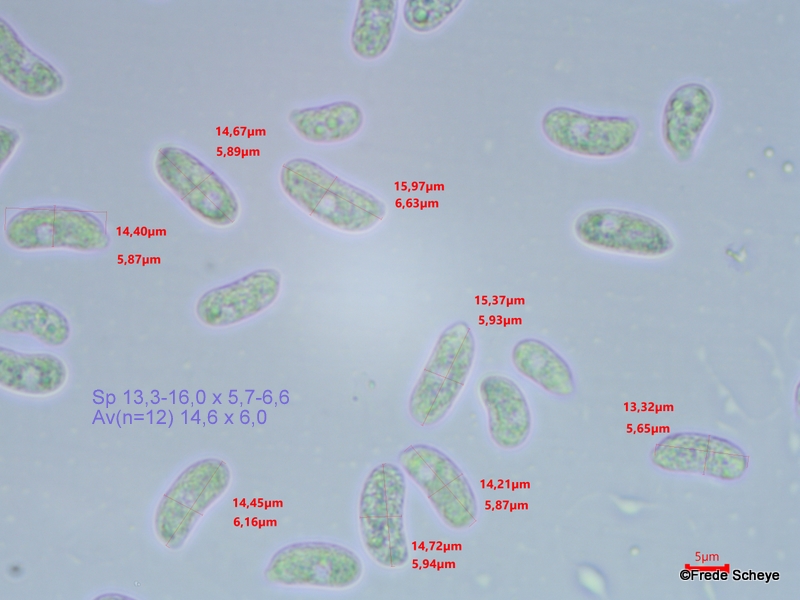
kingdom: Fungi
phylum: Basidiomycota
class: Agaricomycetes
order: Auriculariales
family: Auriculariaceae
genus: Exidia
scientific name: Exidia pithya
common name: gran-bævretop
